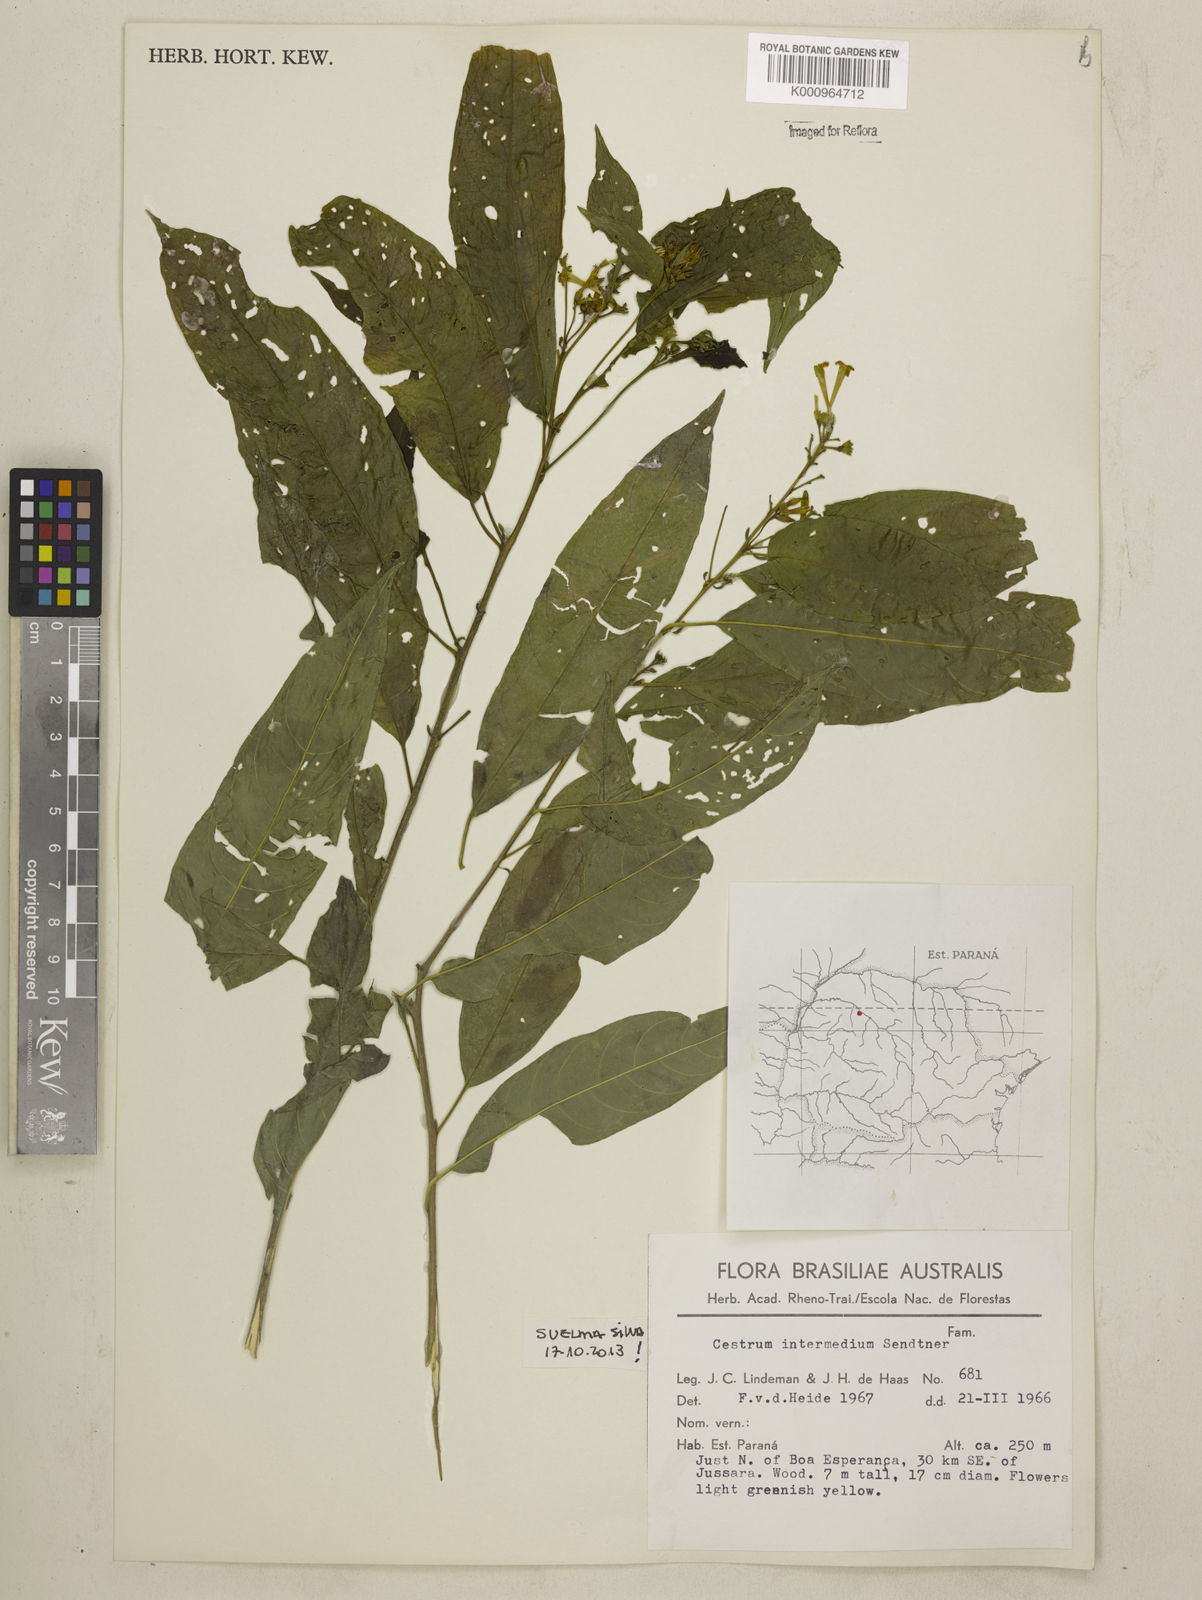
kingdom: Plantae
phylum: Tracheophyta
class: Magnoliopsida
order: Solanales
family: Solanaceae
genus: Cestrum
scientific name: Cestrum intermedium
